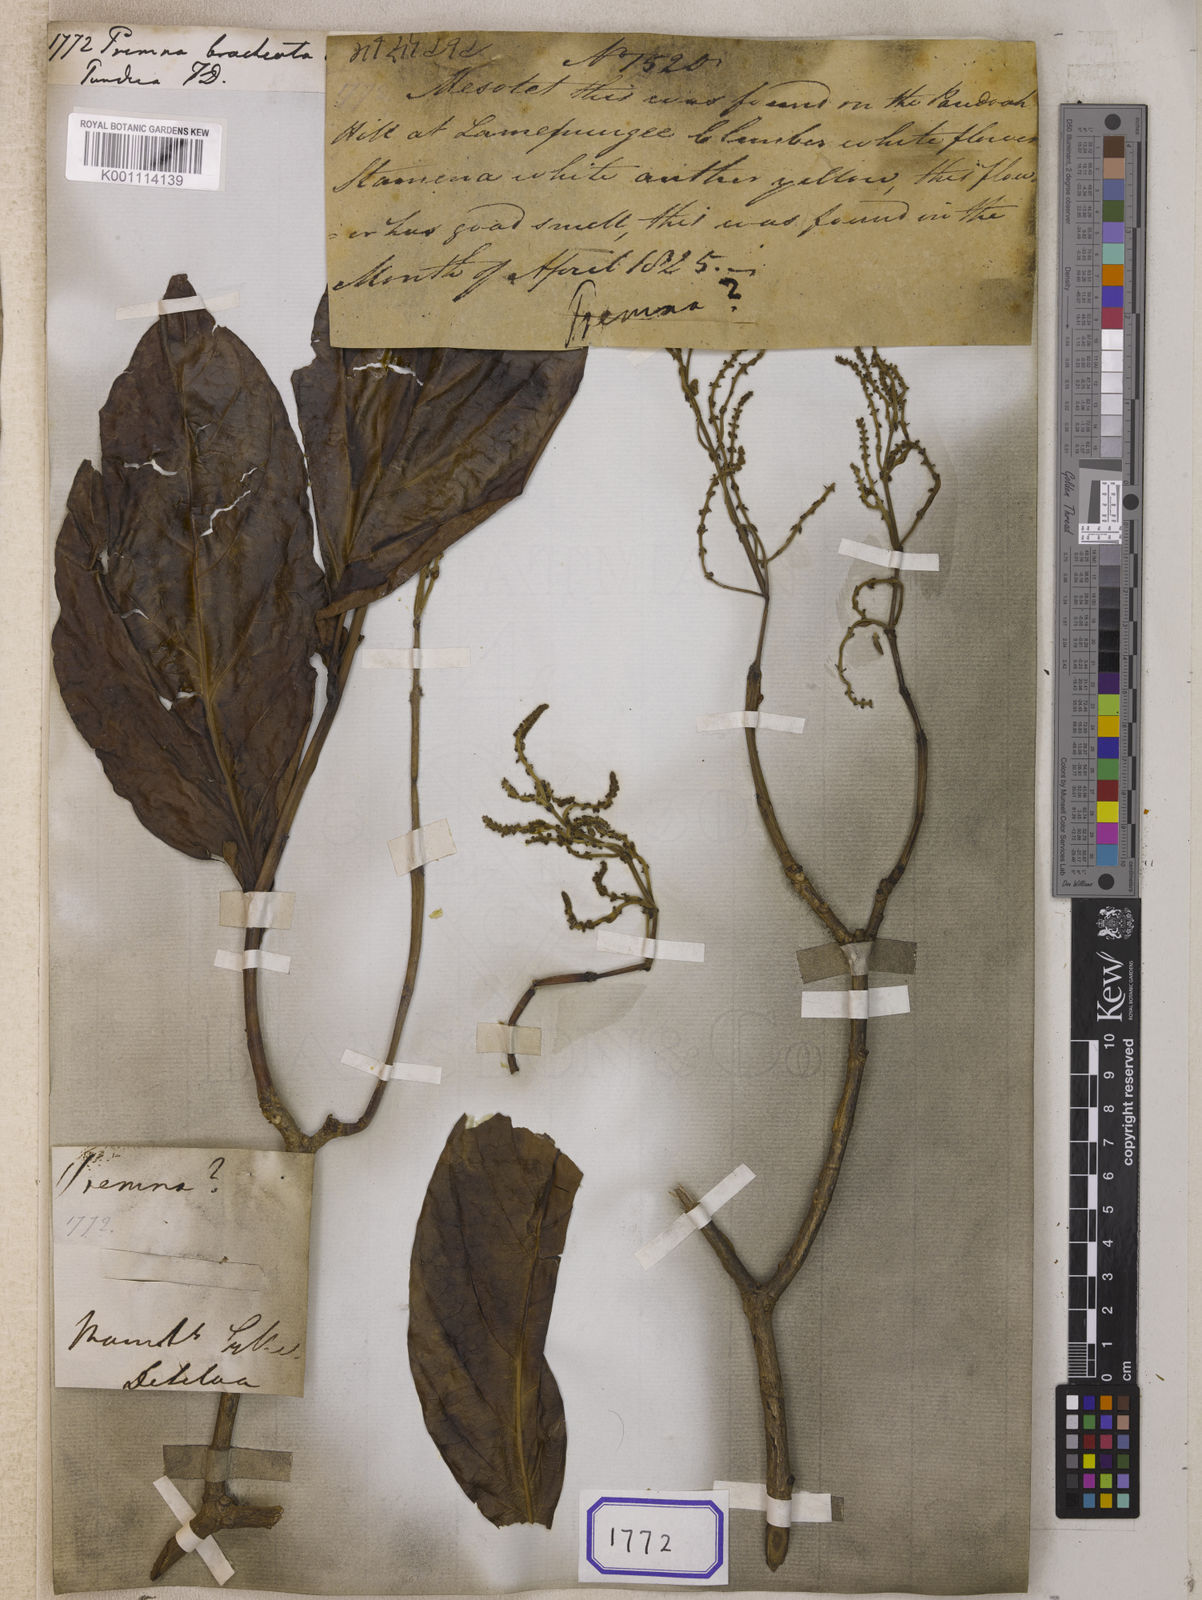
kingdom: Plantae
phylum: Tracheophyta
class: Magnoliopsida
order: Lamiales
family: Lamiaceae
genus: Premna
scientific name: Premna
